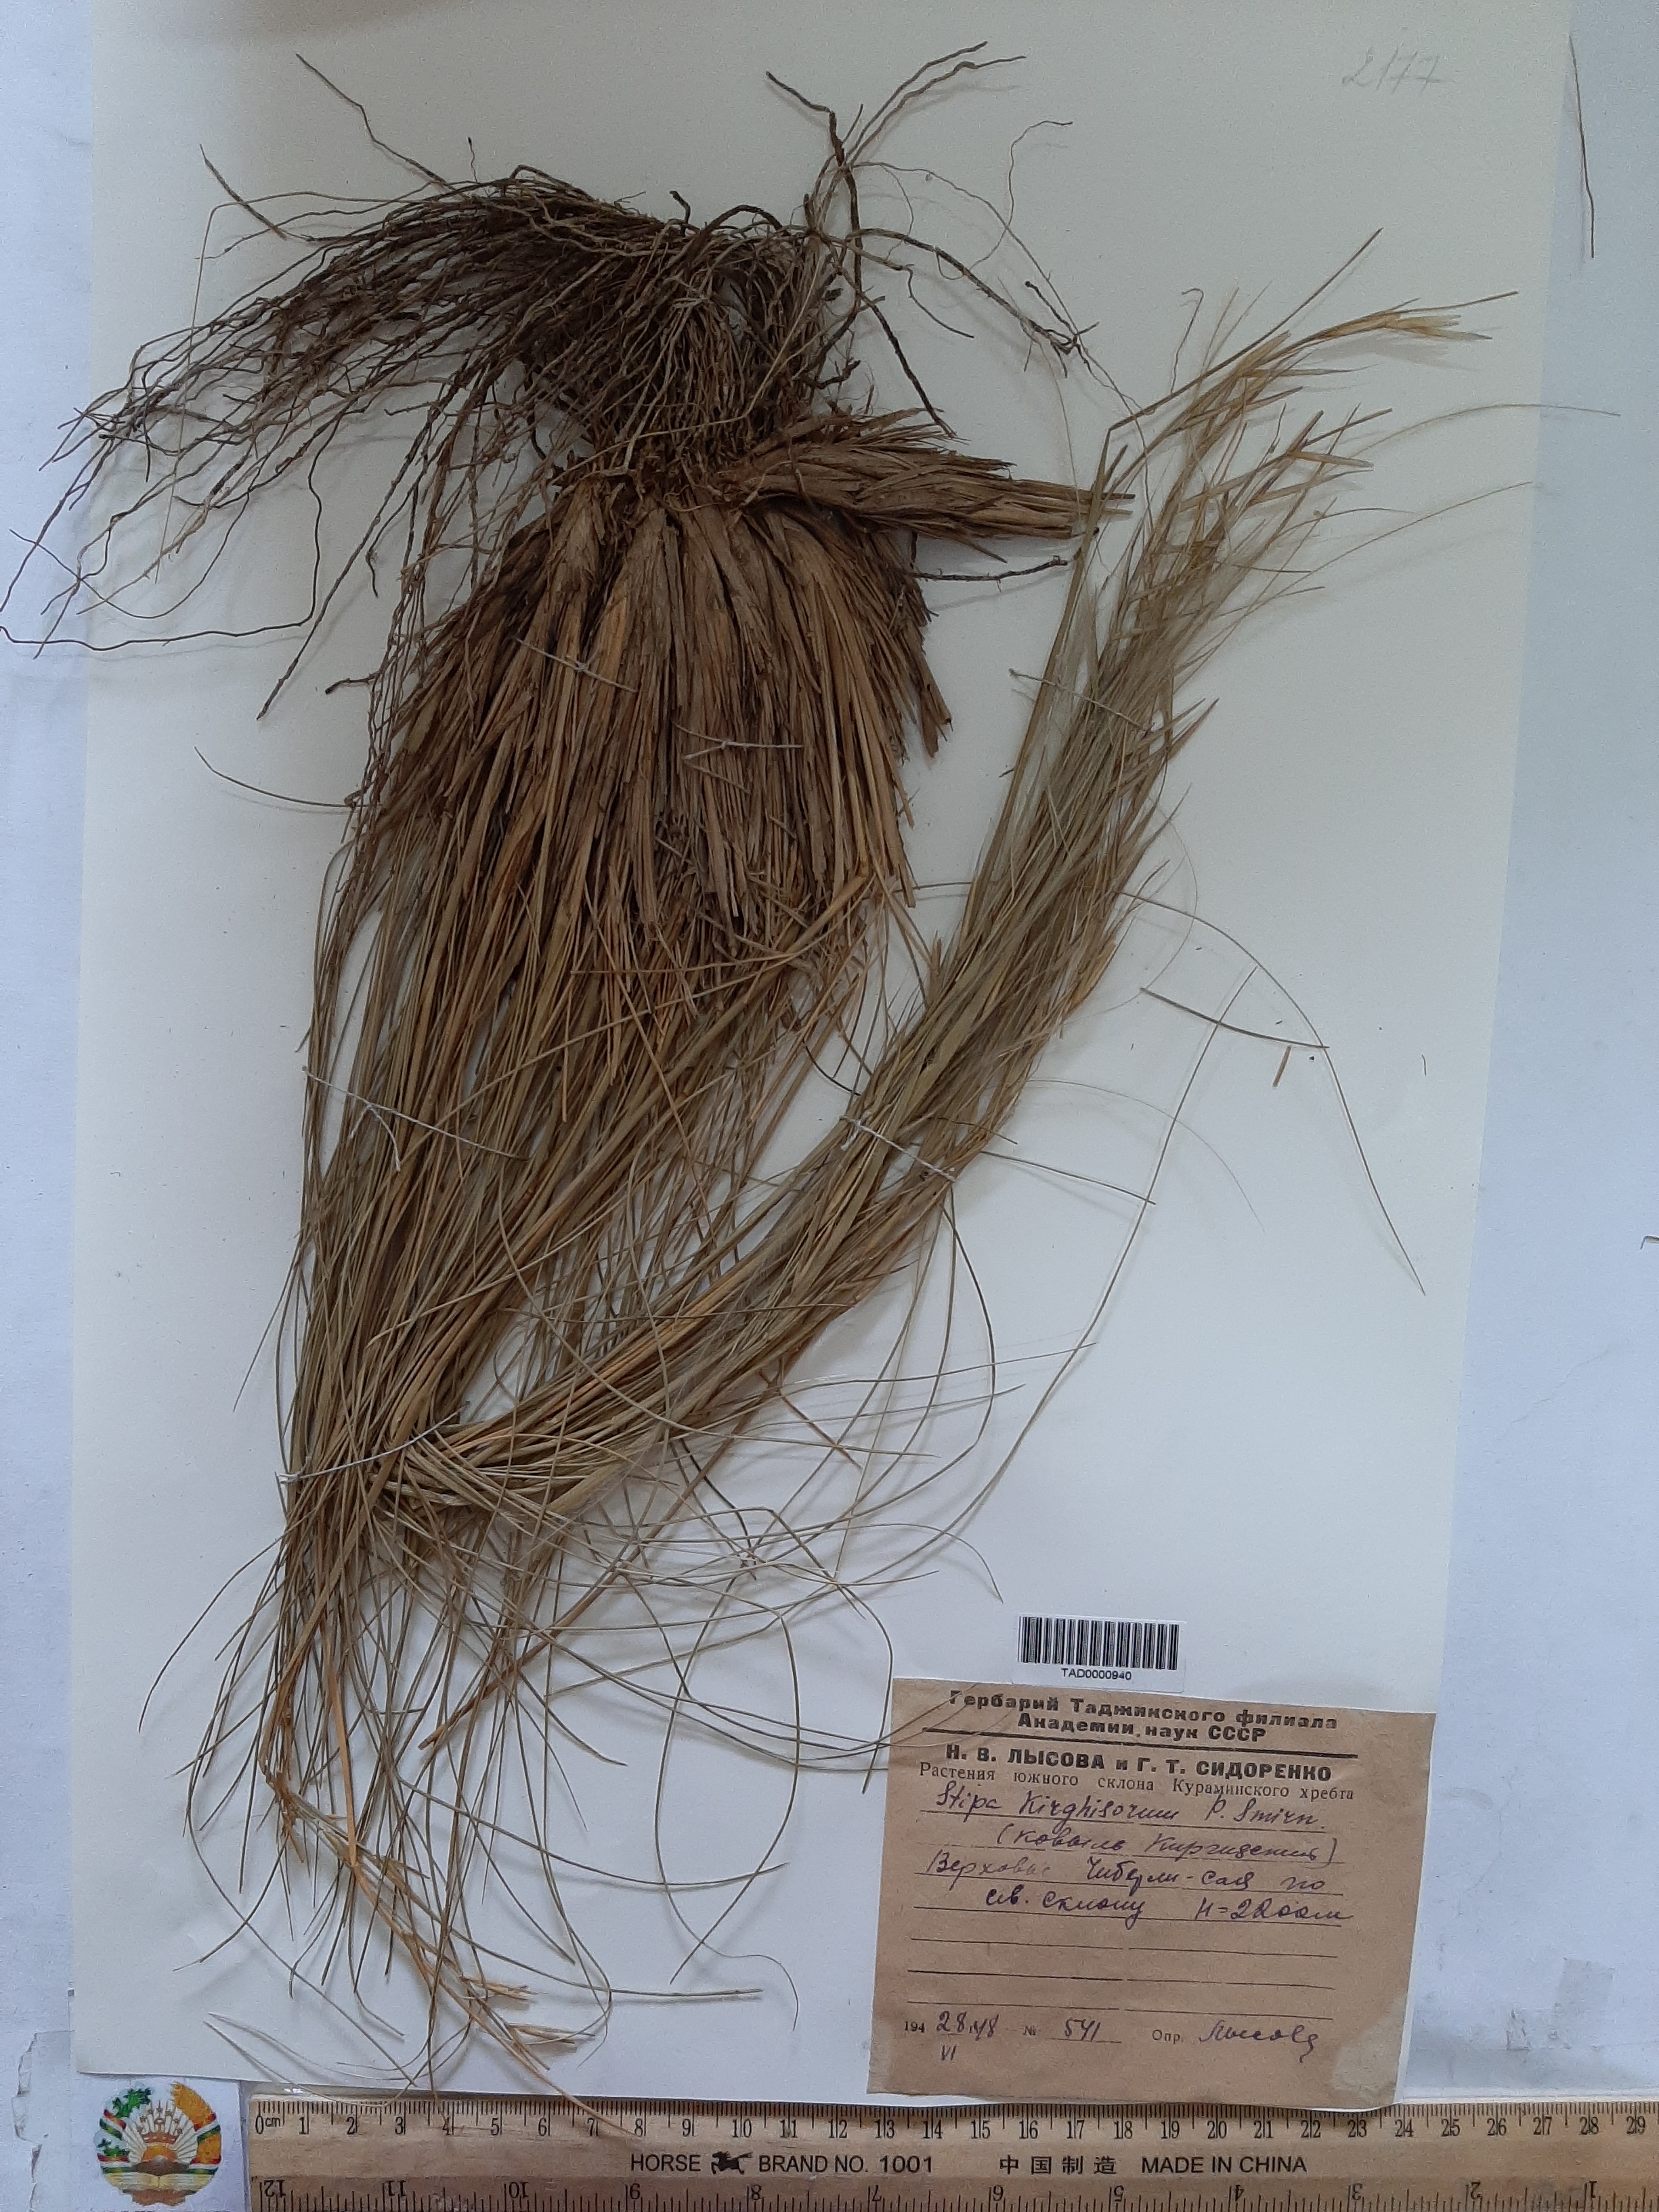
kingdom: Plantae
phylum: Tracheophyta
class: Liliopsida
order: Poales
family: Poaceae
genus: Stipa
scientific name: Stipa kirghisorum
